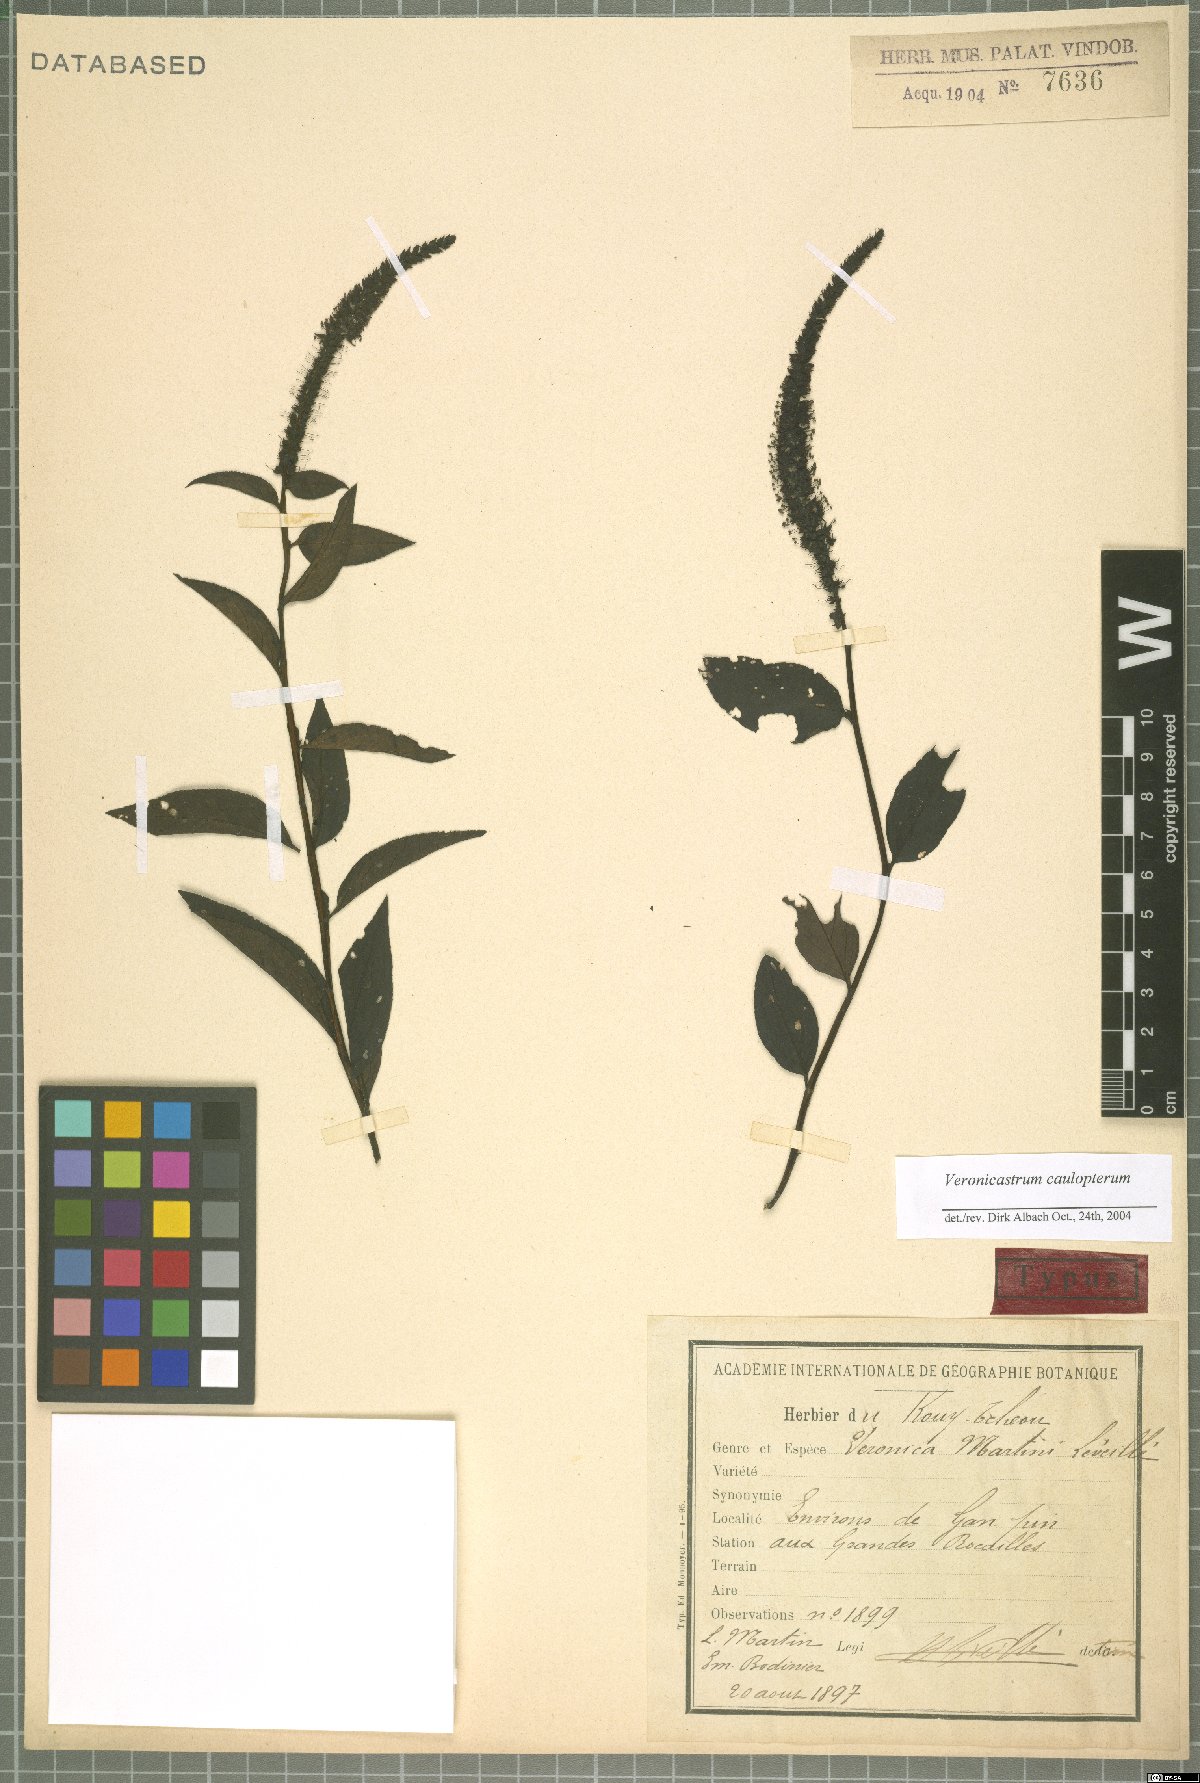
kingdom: Plantae
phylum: Tracheophyta
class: Magnoliopsida
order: Lamiales
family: Plantaginaceae
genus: Veronicastrum
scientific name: Veronicastrum caulopterum
